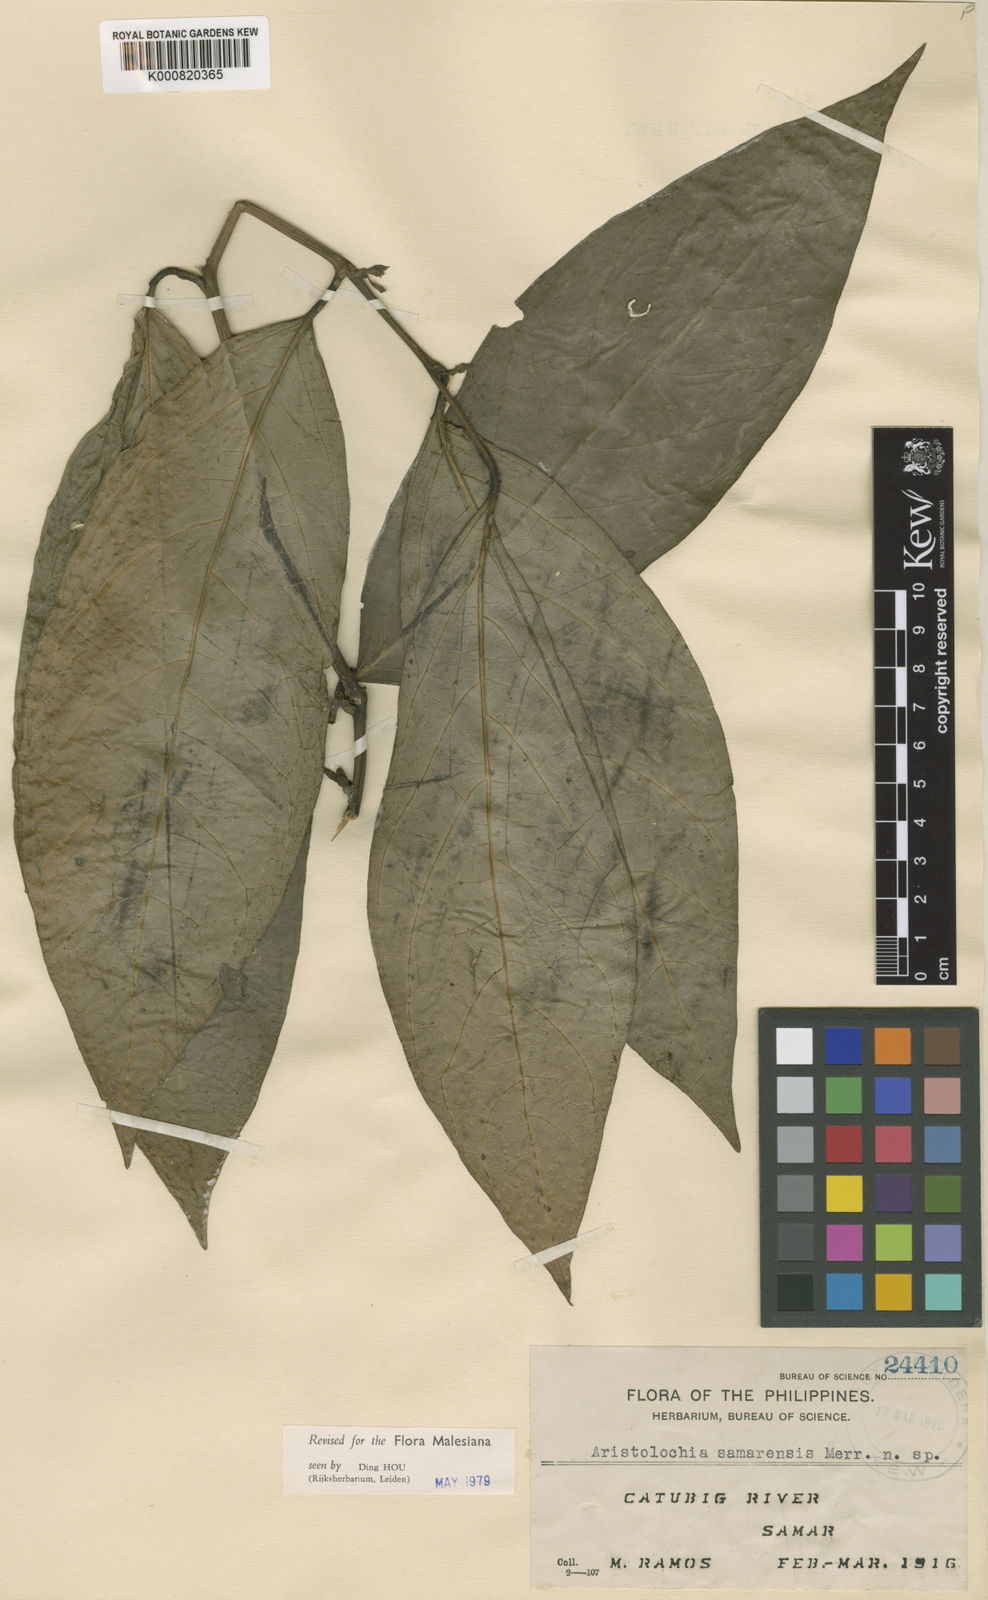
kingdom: Plantae
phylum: Tracheophyta
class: Magnoliopsida
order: Piperales
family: Aristolochiaceae
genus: Aristolochia
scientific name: Aristolochia samarensis
